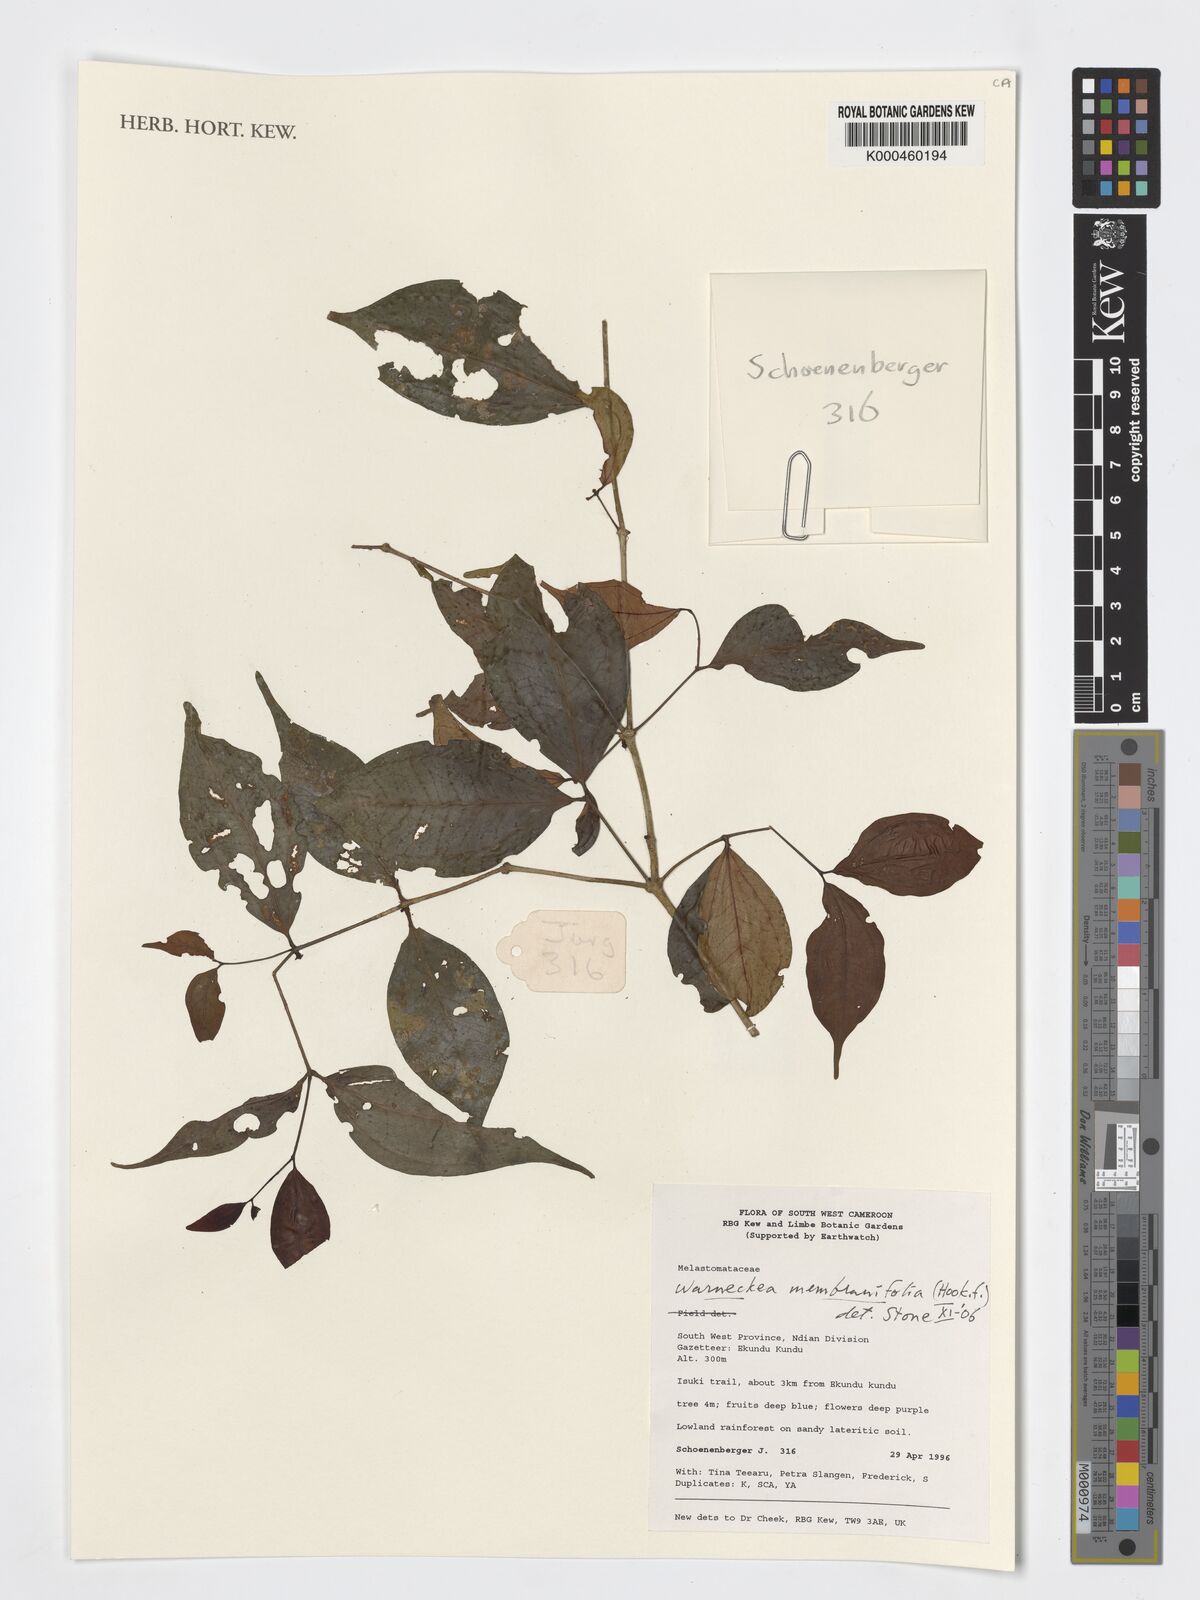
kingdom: Plantae
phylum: Tracheophyta
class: Magnoliopsida
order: Myrtales
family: Melastomataceae
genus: Warneckea
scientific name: Warneckea
